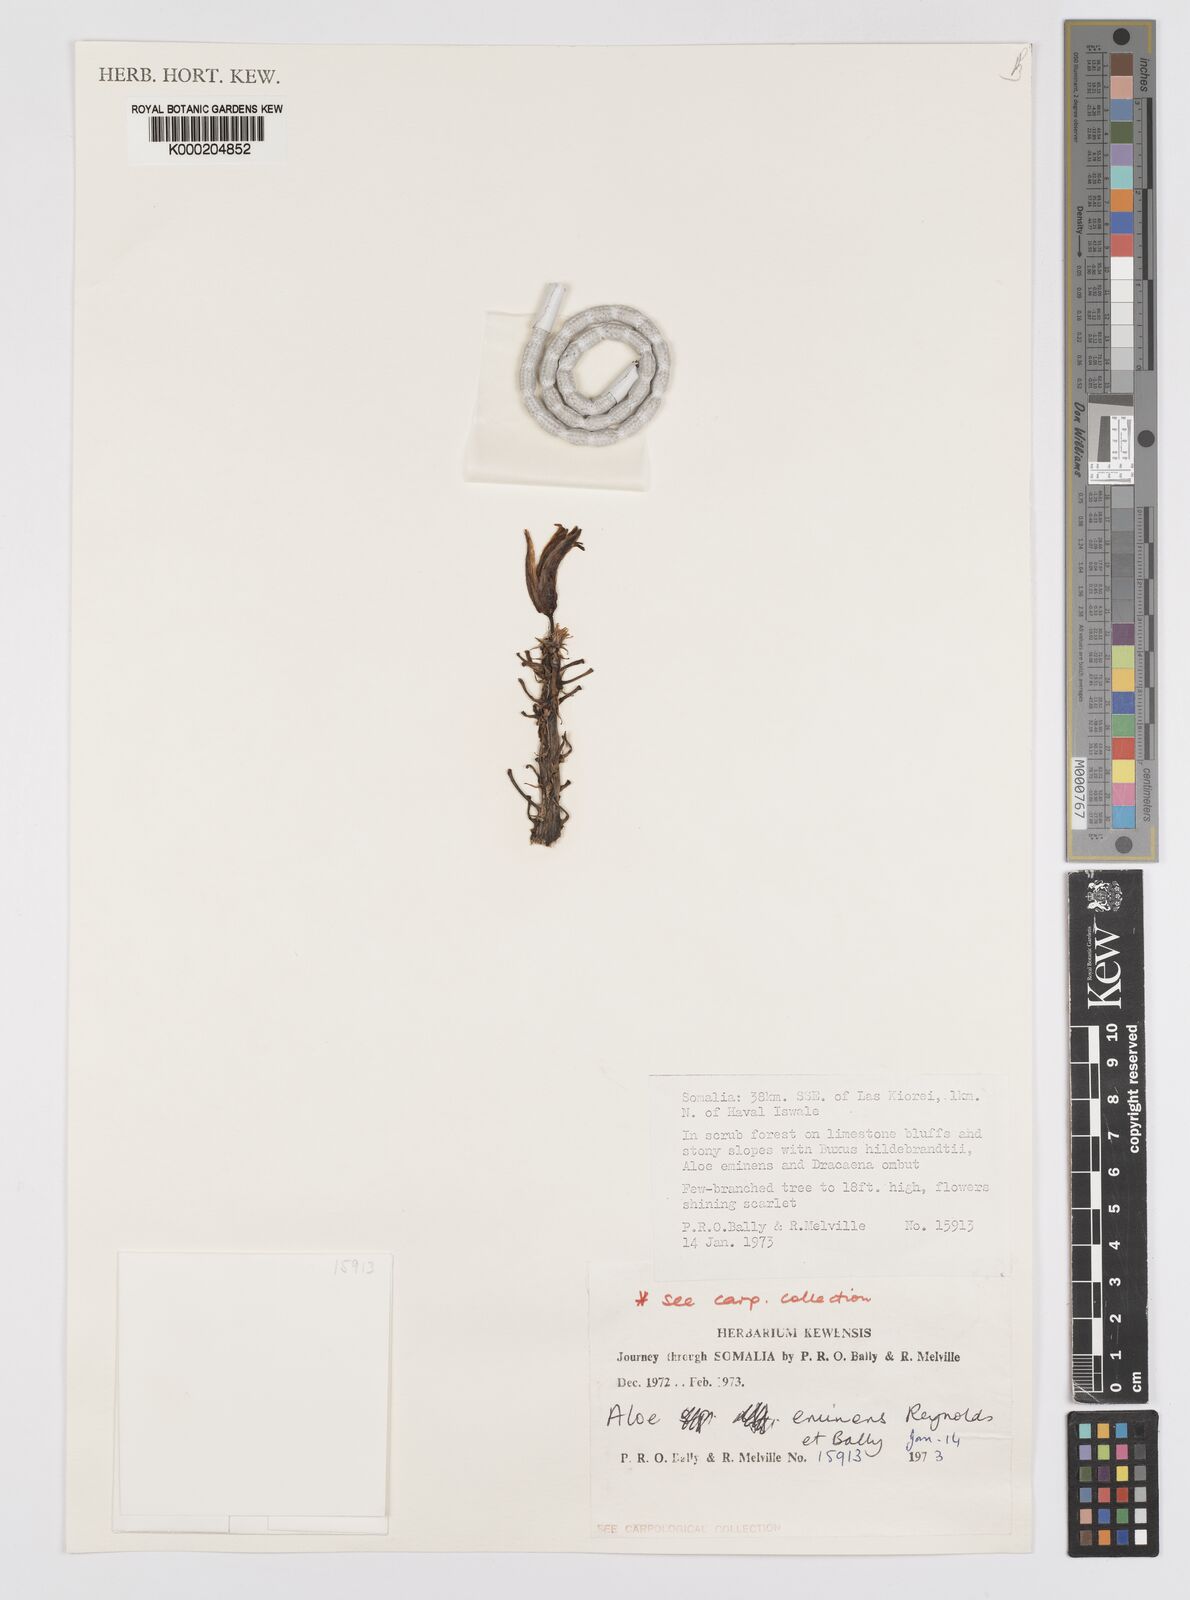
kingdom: Plantae
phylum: Tracheophyta
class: Liliopsida
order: Asparagales
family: Asphodelaceae
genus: Aloidendron
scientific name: Aloidendron eminens
